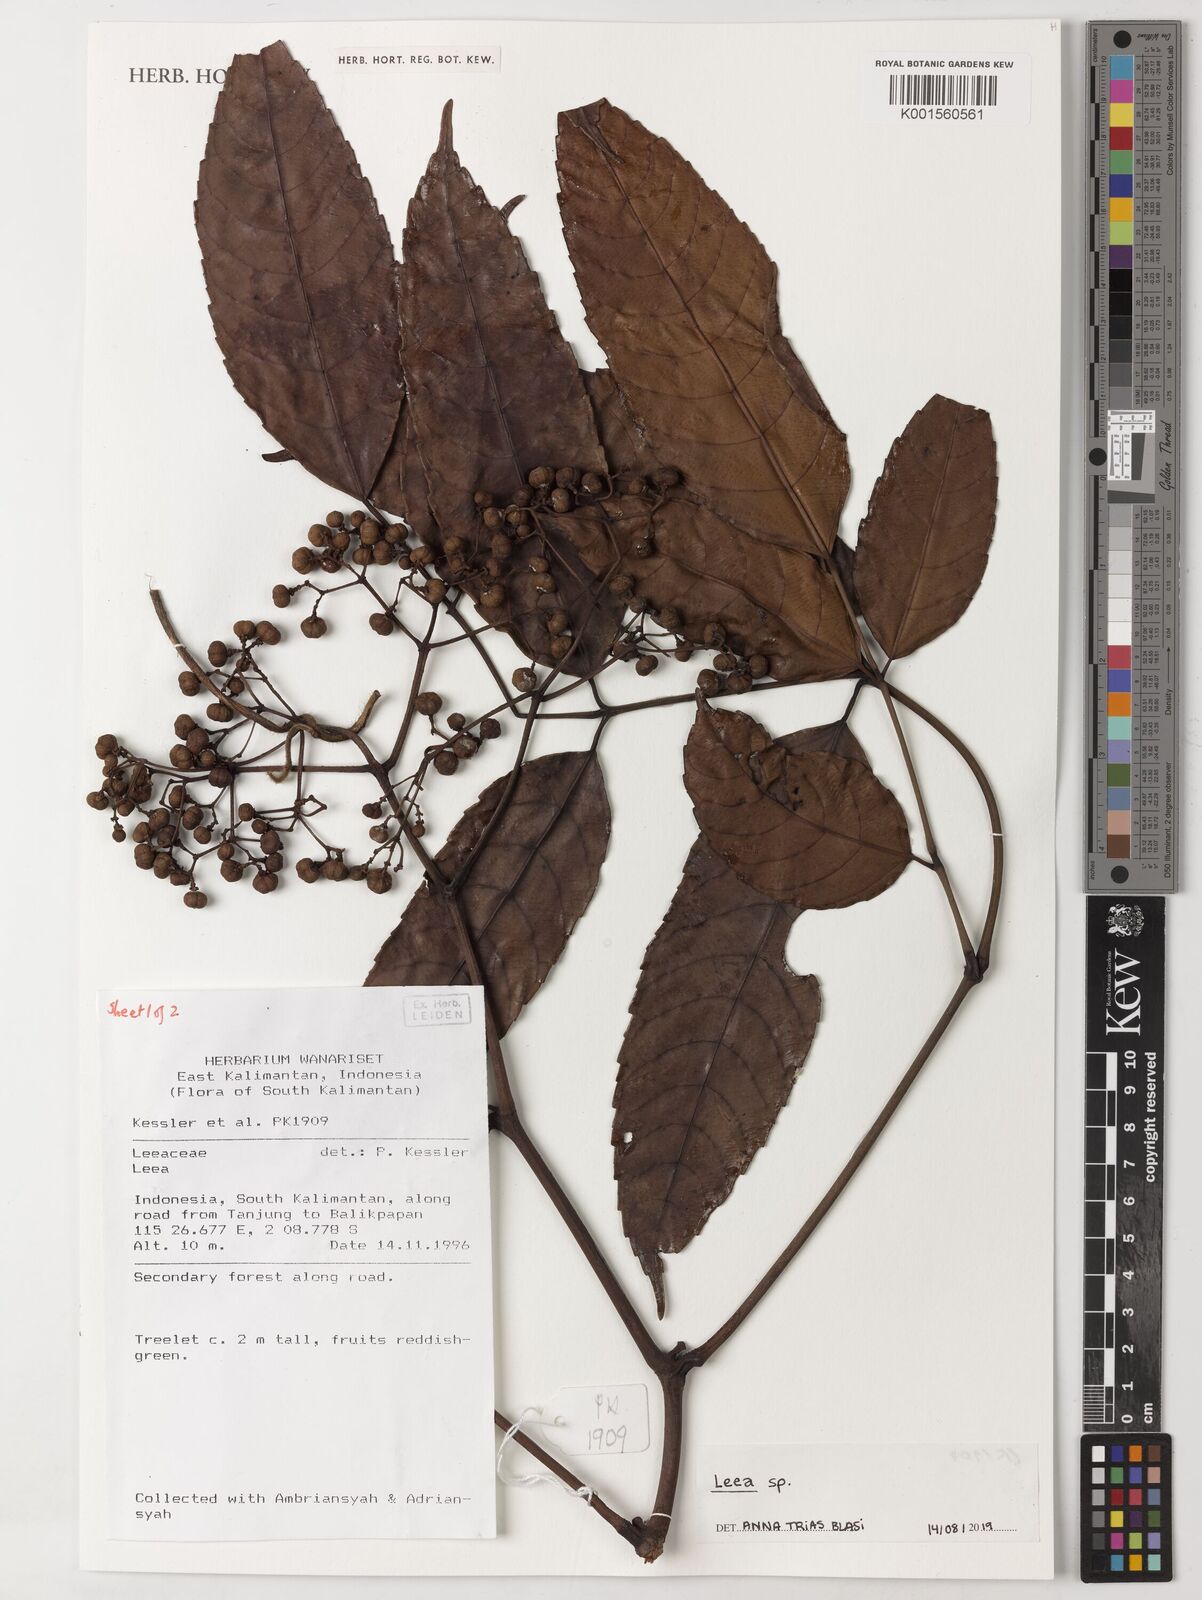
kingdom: Plantae
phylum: Tracheophyta
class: Magnoliopsida
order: Vitales
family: Vitaceae
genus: Leea
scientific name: Leea
